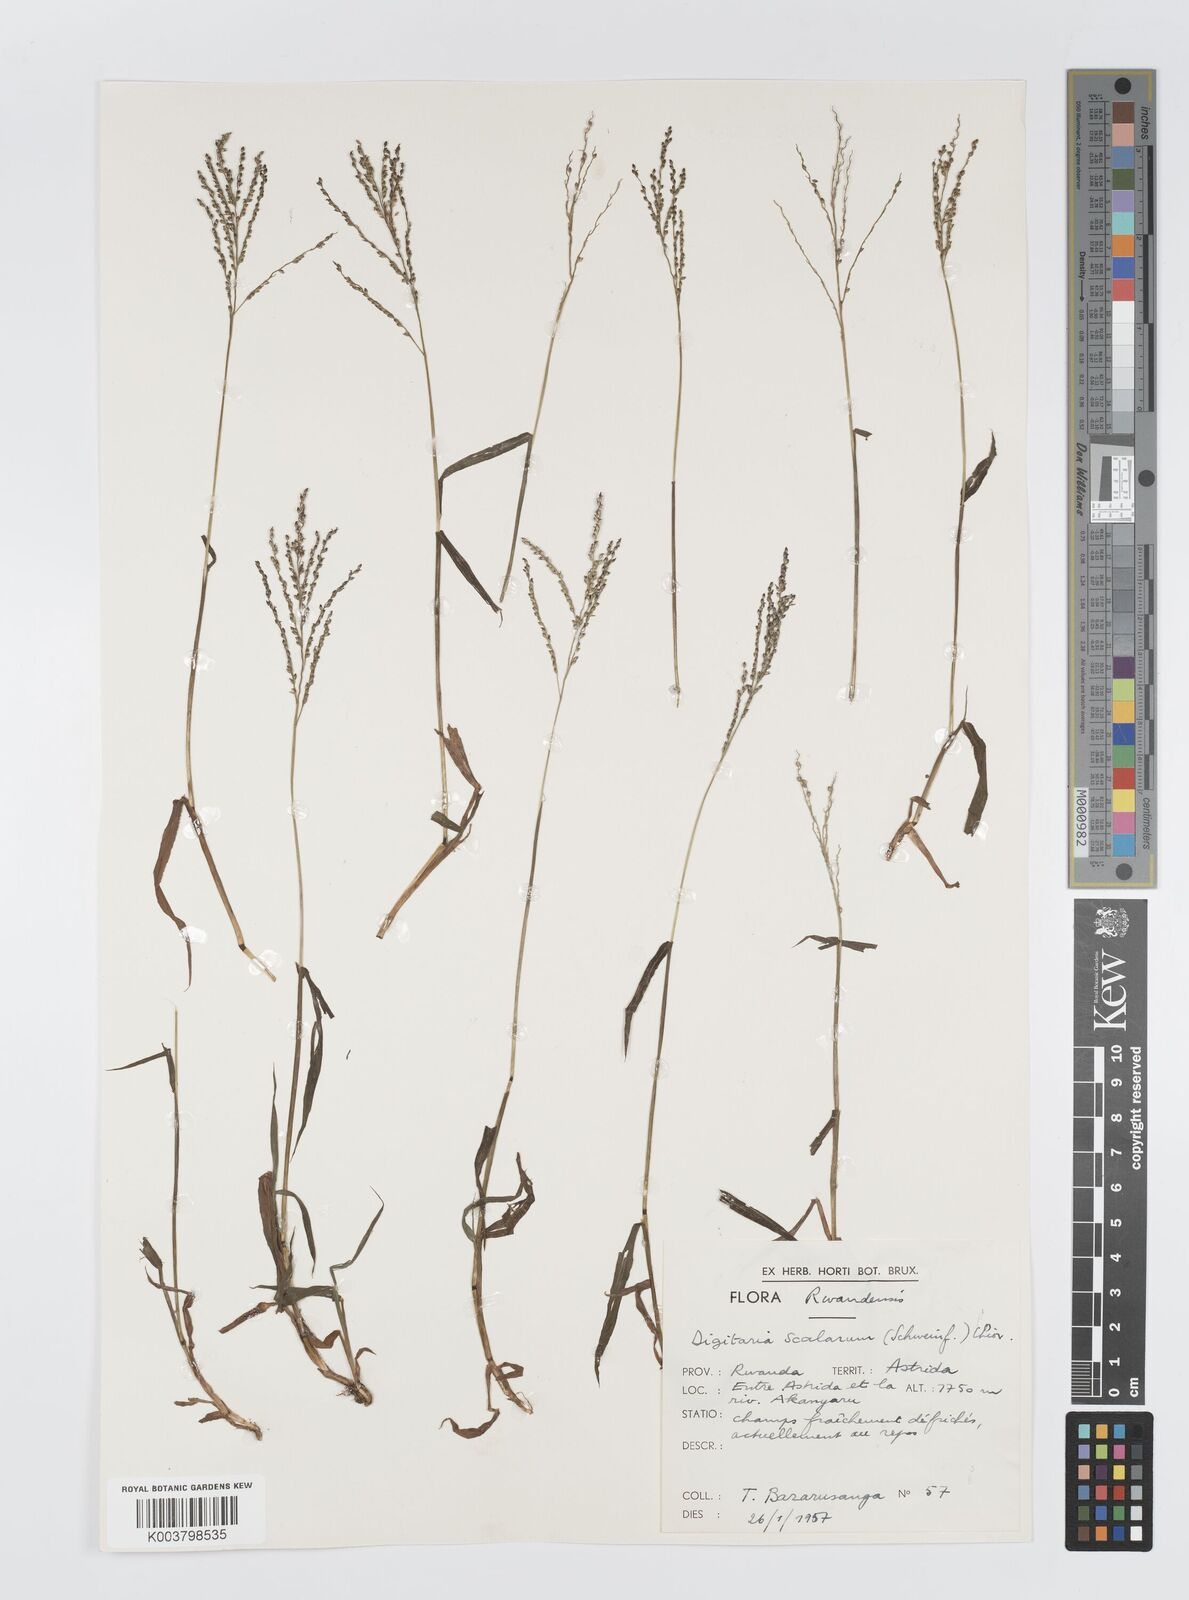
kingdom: Plantae
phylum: Tracheophyta
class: Liliopsida
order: Poales
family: Poaceae
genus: Digitaria
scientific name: Digitaria abyssinica
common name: African couchgrass
